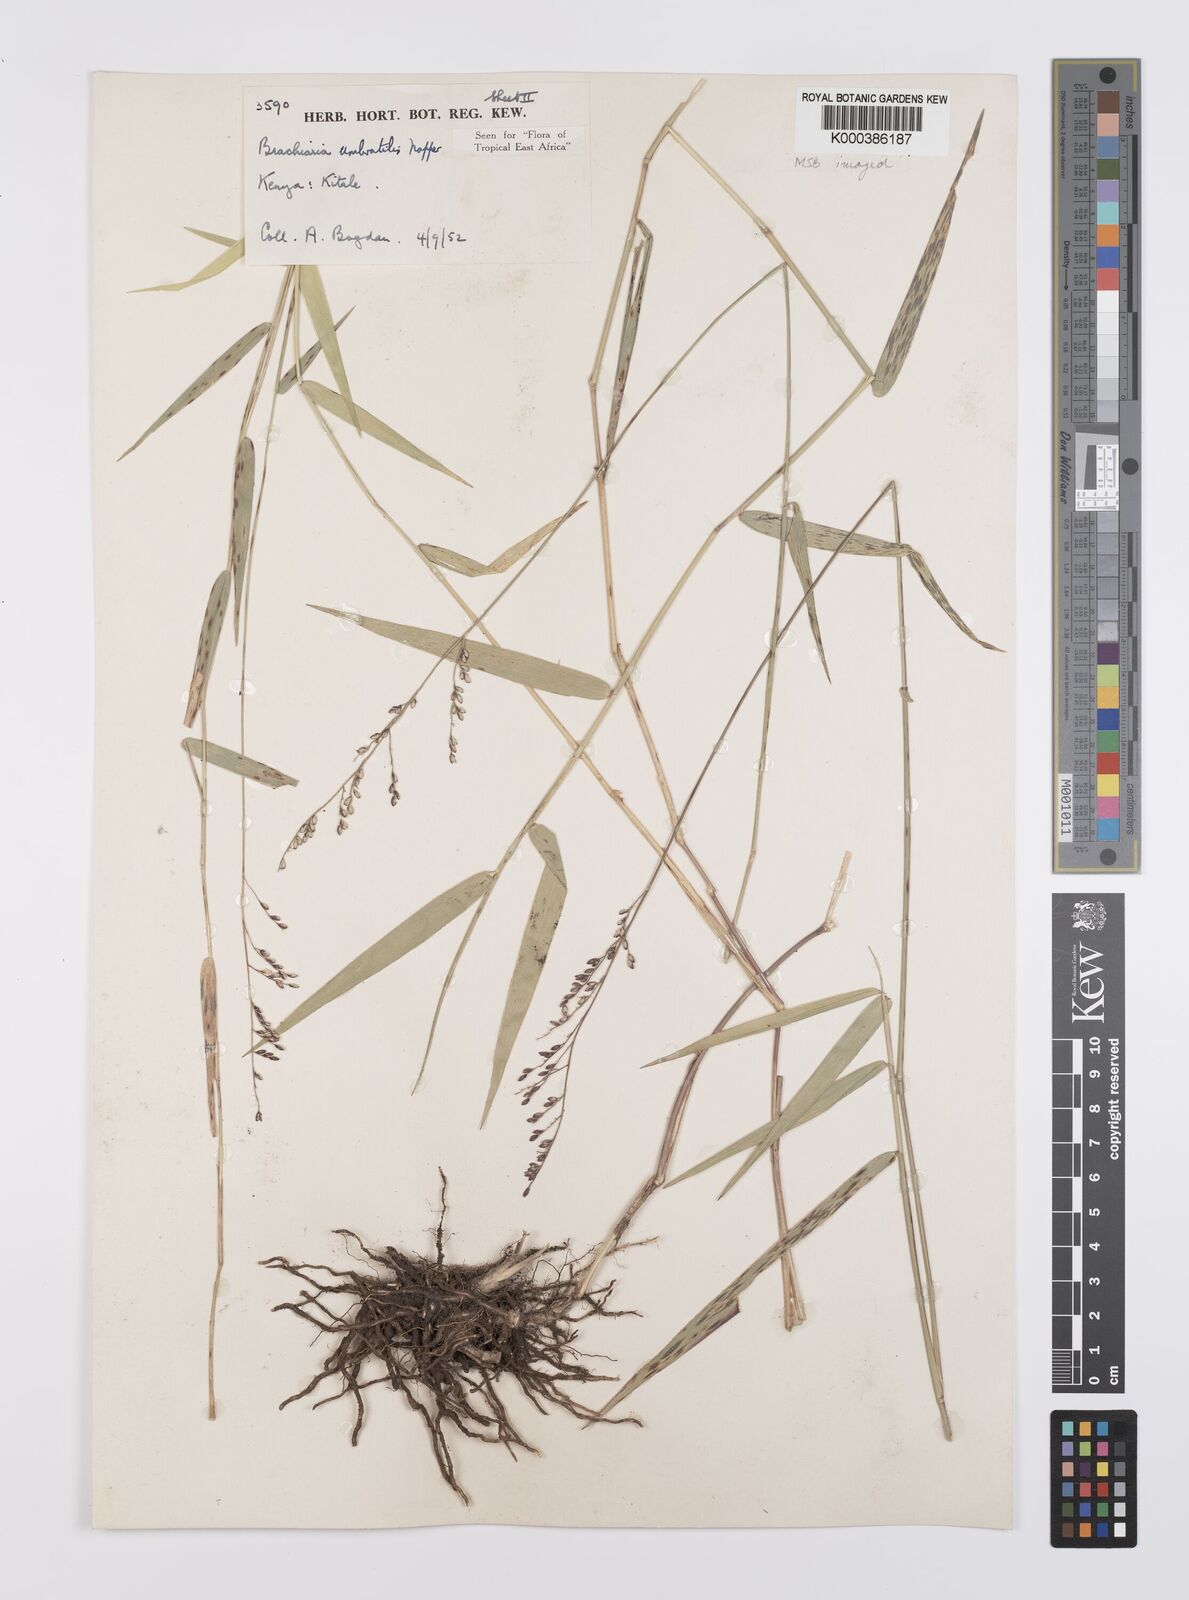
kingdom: Plantae
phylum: Tracheophyta
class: Liliopsida
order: Poales
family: Poaceae
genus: Urochloa
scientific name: Urochloa Brachiaria umbratilis
